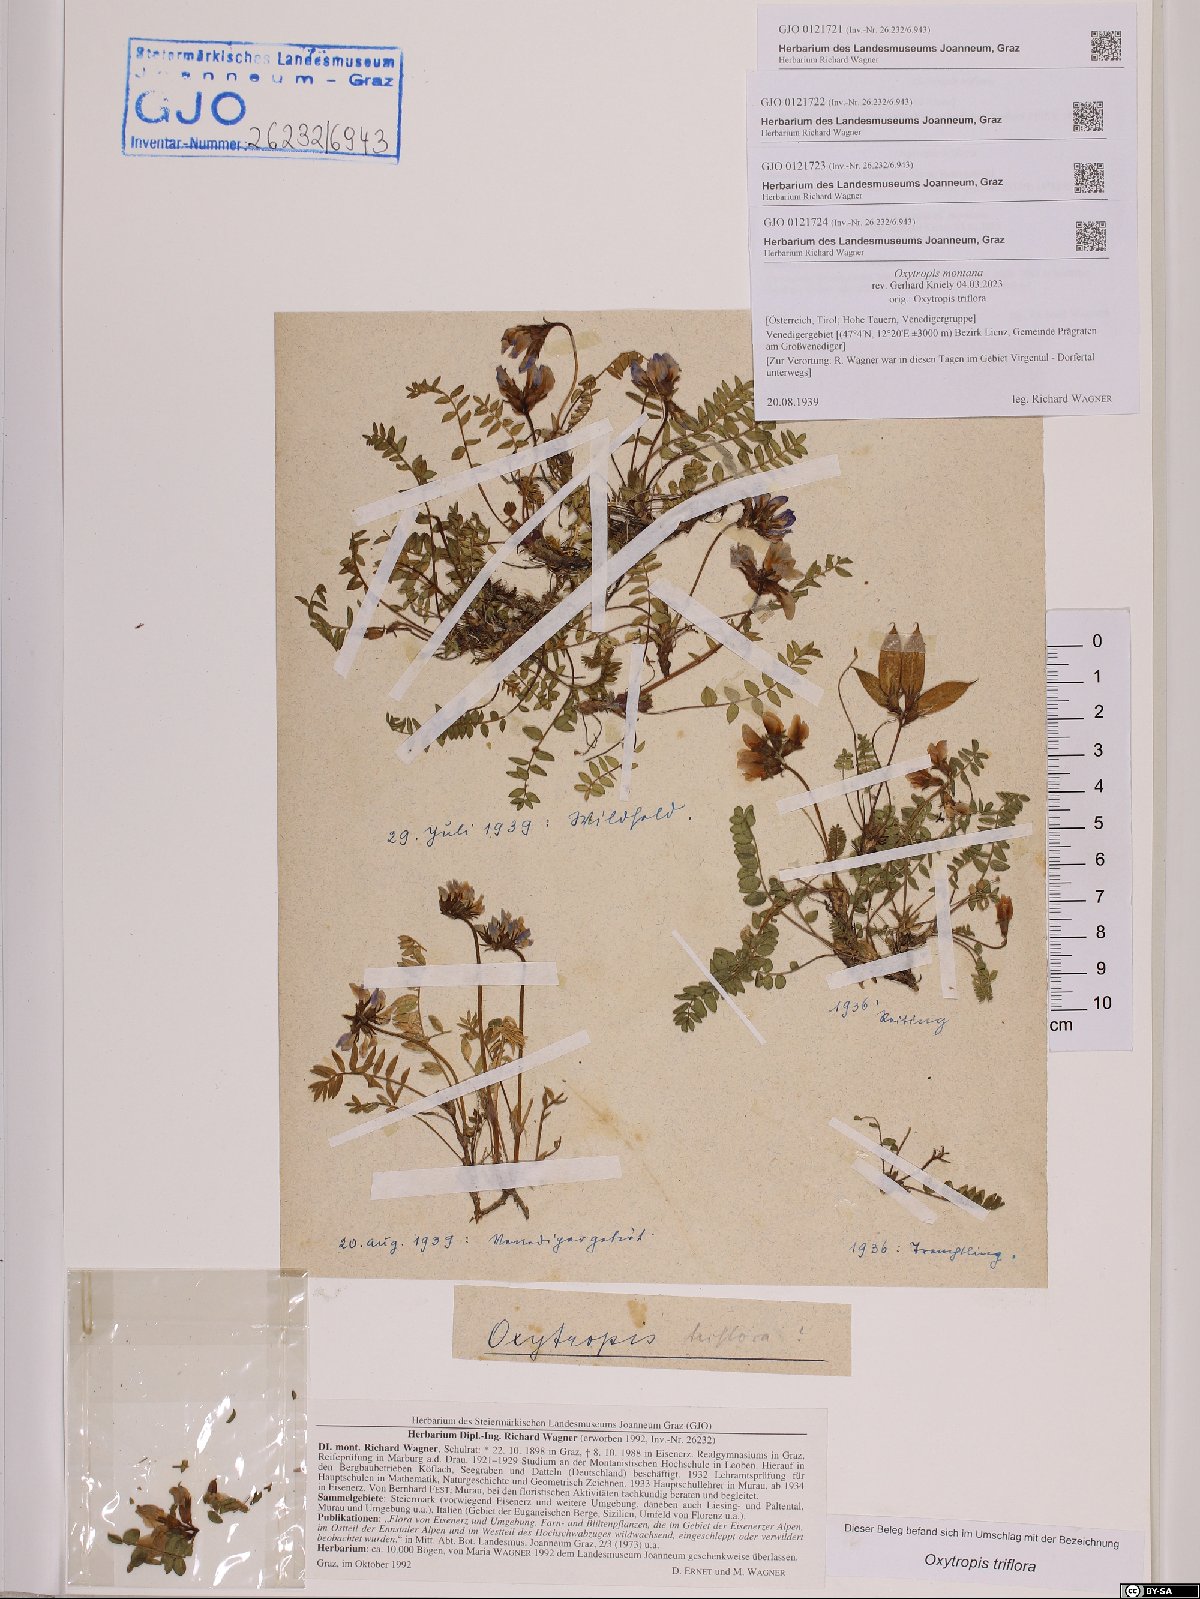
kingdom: Plantae
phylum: Tracheophyta
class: Magnoliopsida
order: Fabales
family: Fabaceae
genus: Oxytropis
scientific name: Oxytropis montana
